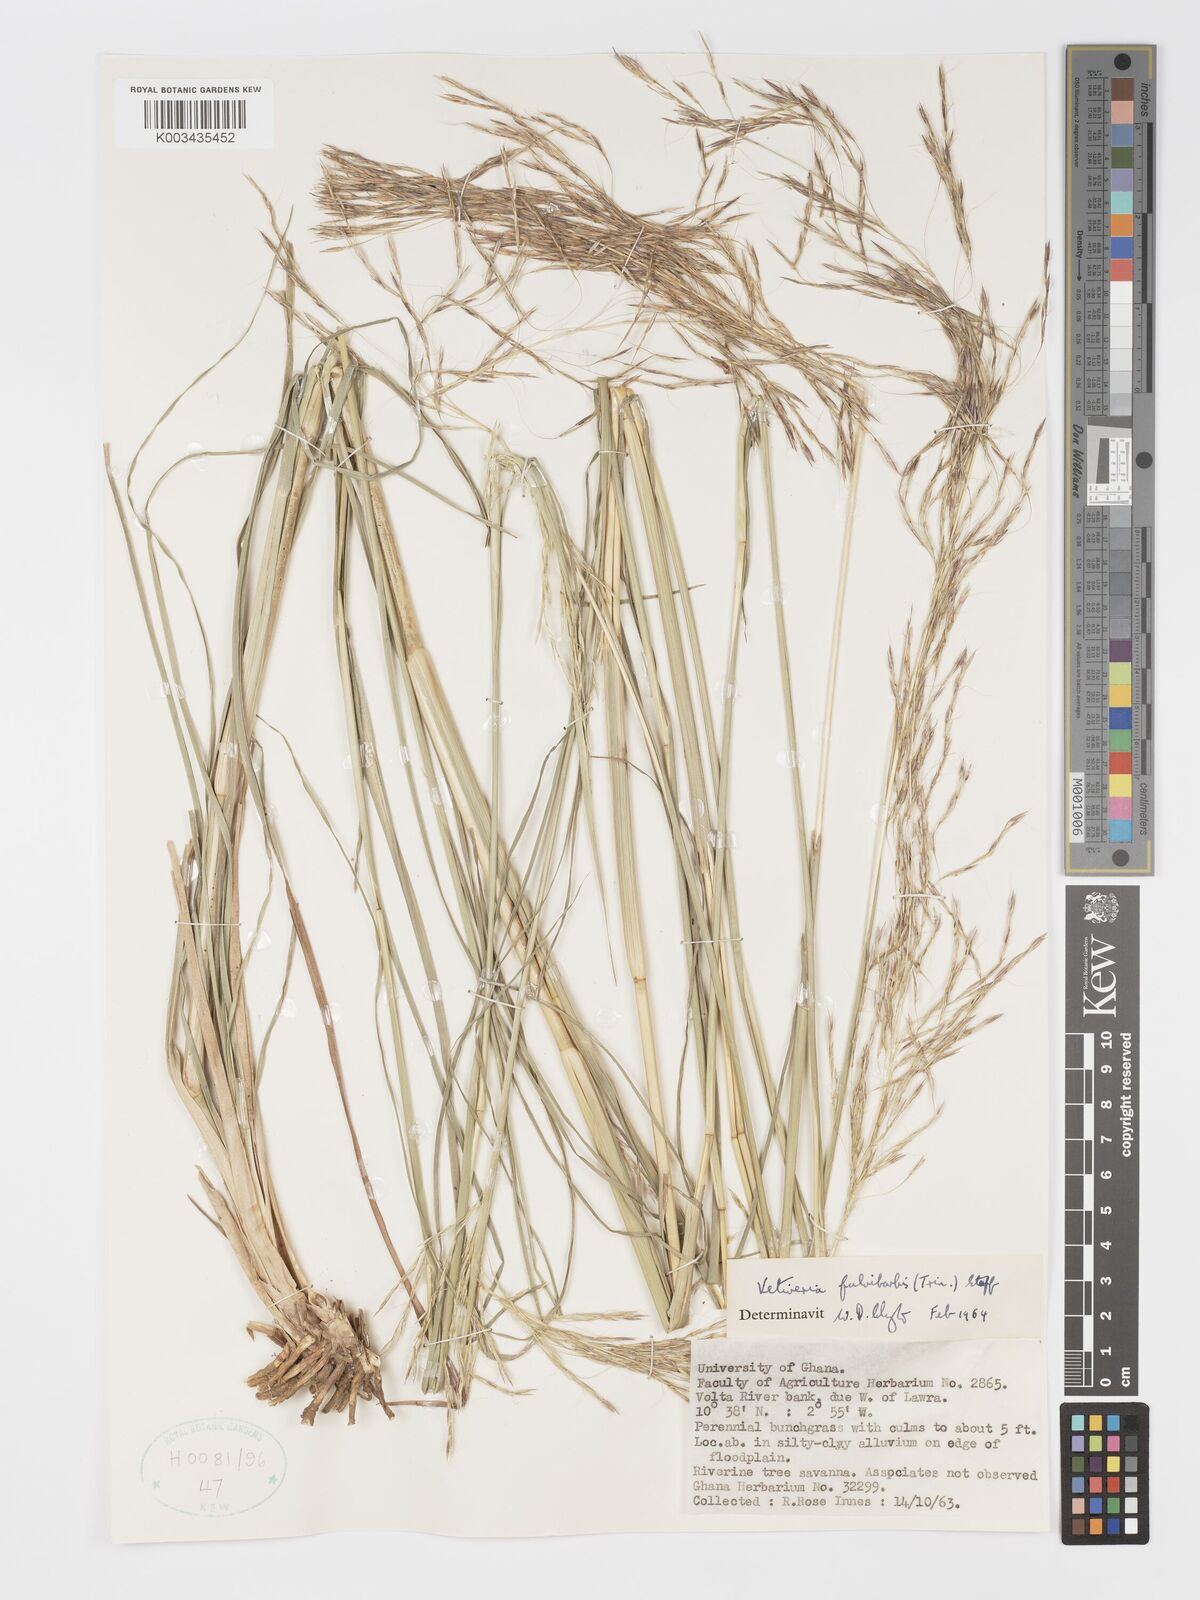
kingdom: Plantae
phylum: Tracheophyta
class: Liliopsida
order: Poales
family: Poaceae
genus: Chrysopogon
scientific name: Chrysopogon fulvibarbis
